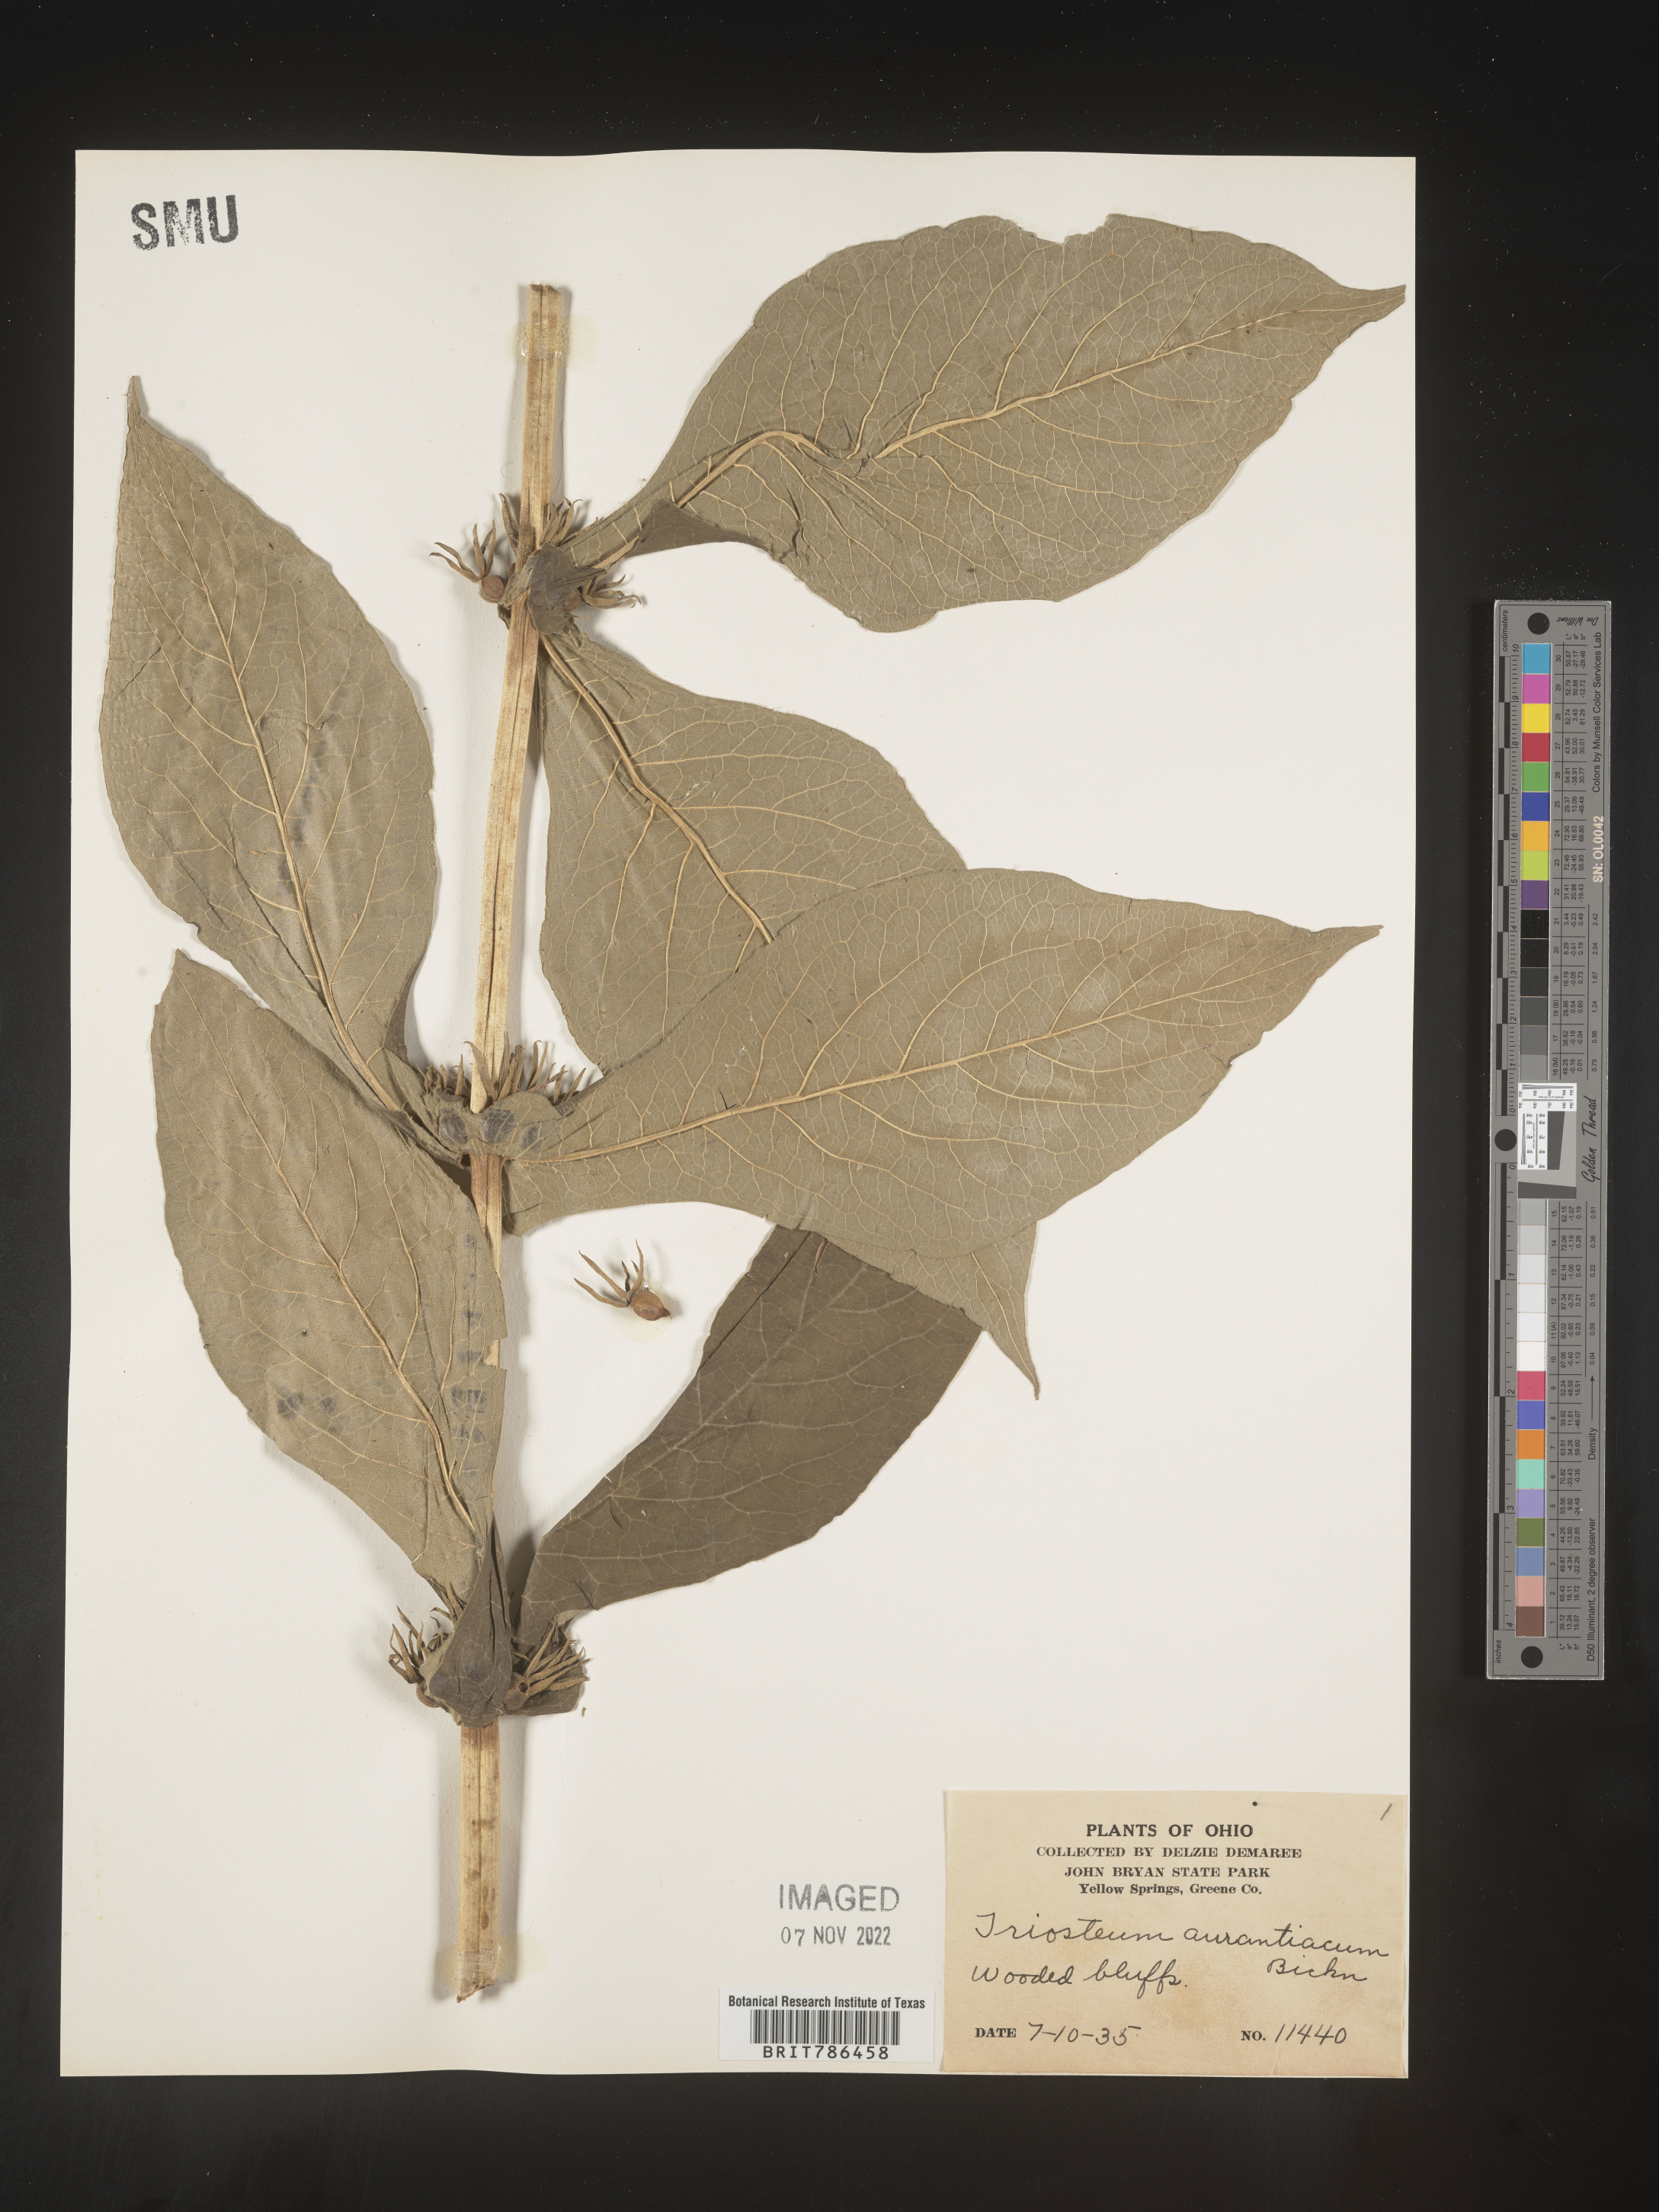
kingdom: Plantae
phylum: Tracheophyta
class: Magnoliopsida
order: Dipsacales
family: Caprifoliaceae
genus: Triosteum
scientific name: Triosteum aurantiacum
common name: Coffee tinker's-weed
